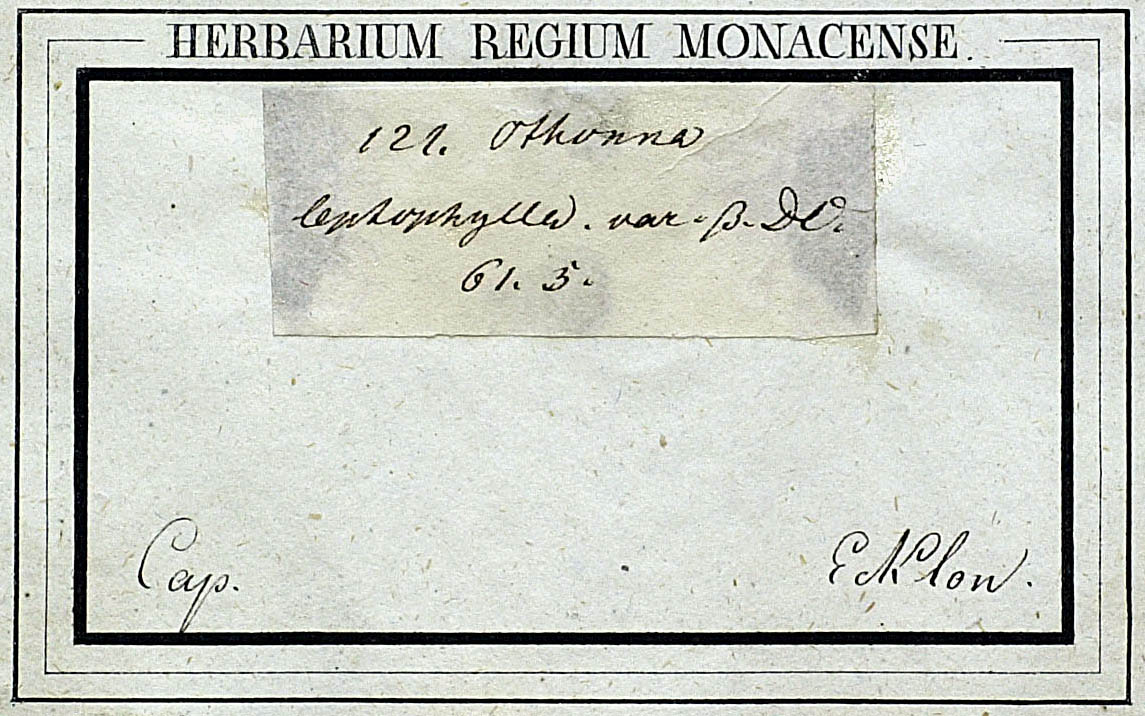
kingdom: Plantae
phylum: Tracheophyta
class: Magnoliopsida
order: Asterales
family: Asteraceae
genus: Othonna
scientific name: Othonna parviflora
